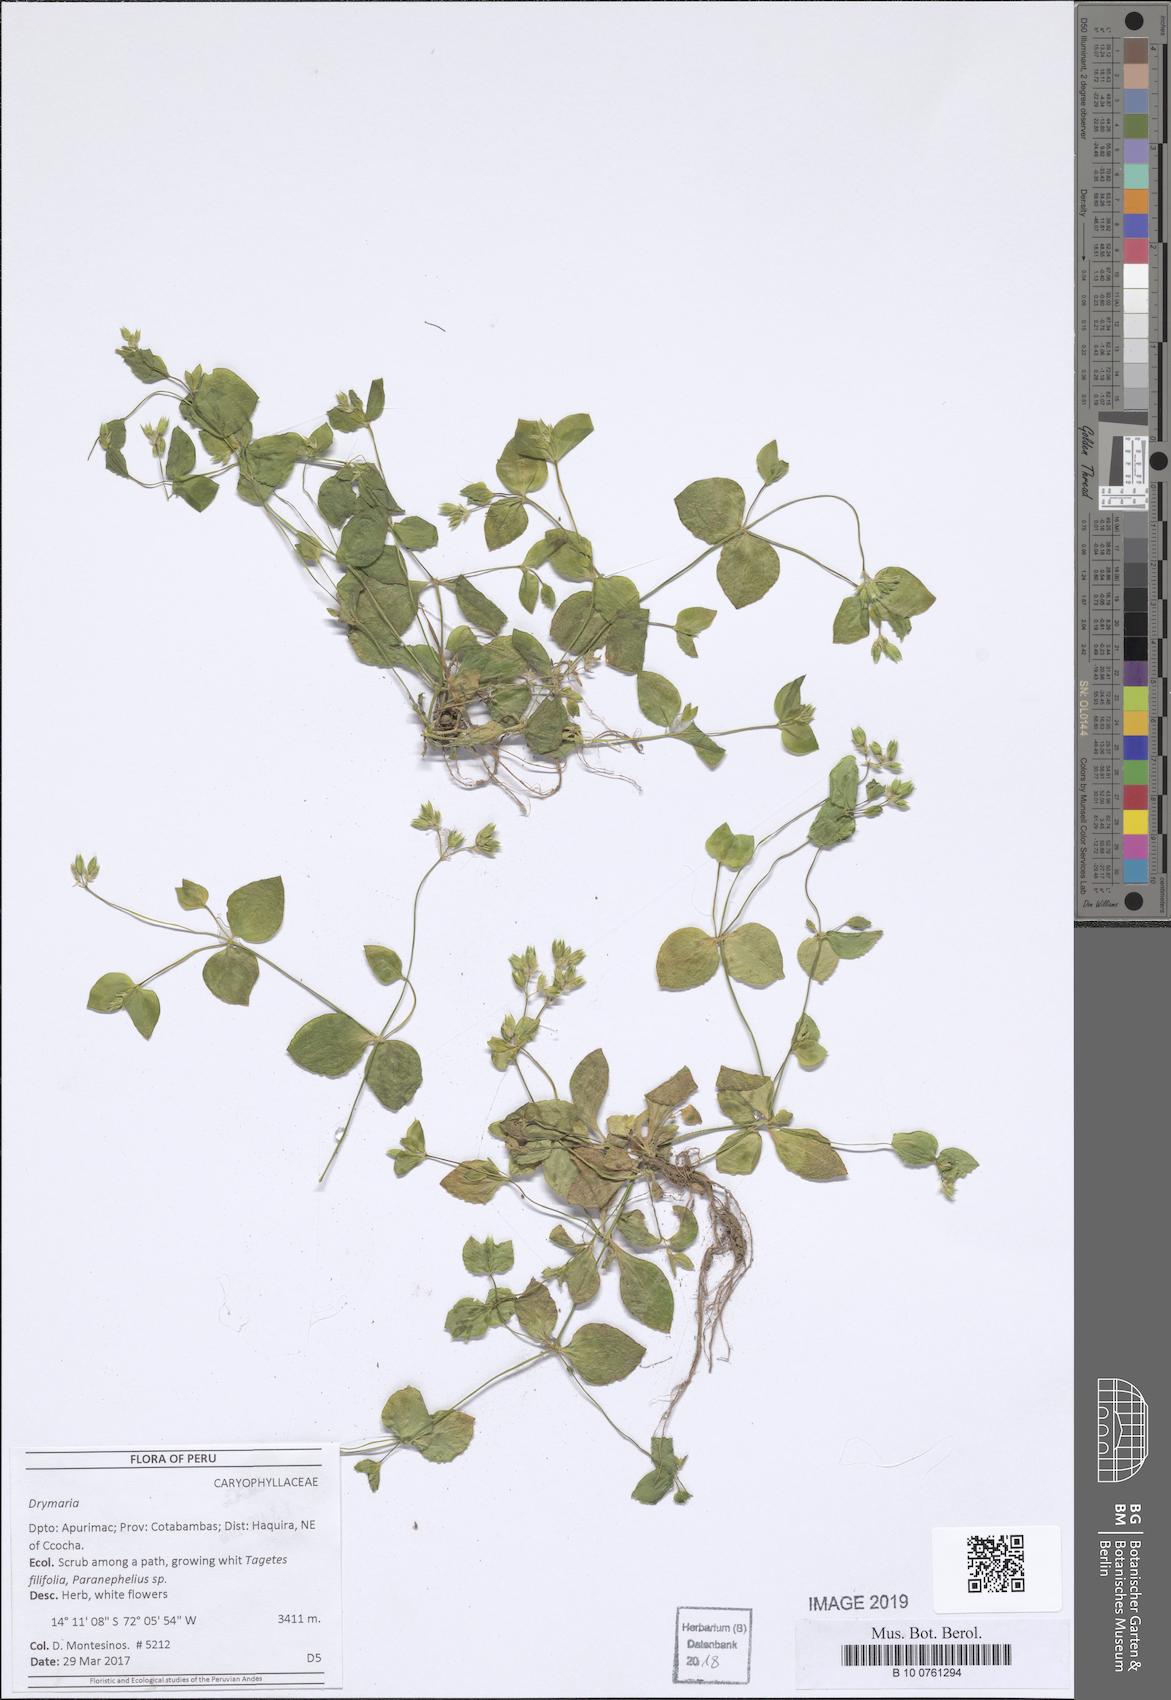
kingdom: Plantae
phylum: Tracheophyta
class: Magnoliopsida
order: Caryophyllales
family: Caryophyllaceae
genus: Drymaria
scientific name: Drymaria
